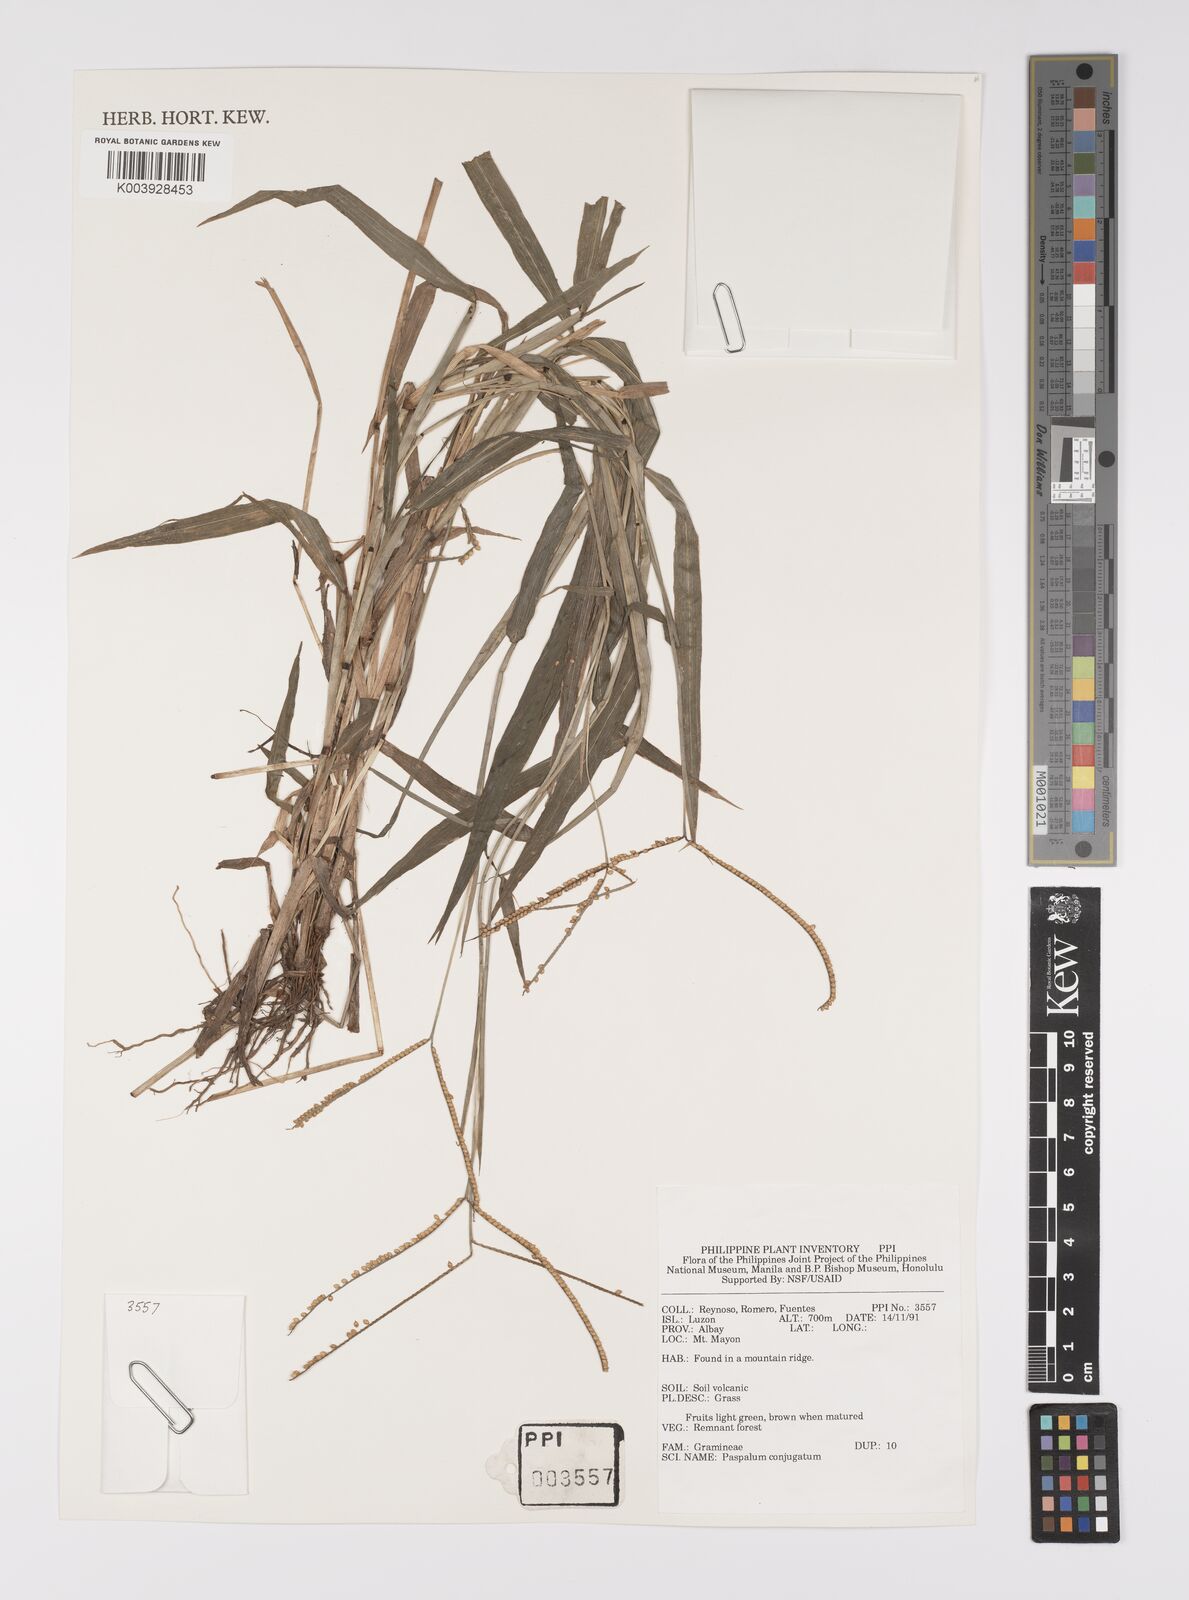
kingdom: Plantae
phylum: Tracheophyta
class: Liliopsida
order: Poales
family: Poaceae
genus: Paspalum
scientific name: Paspalum conjugatum
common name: Hilograss
